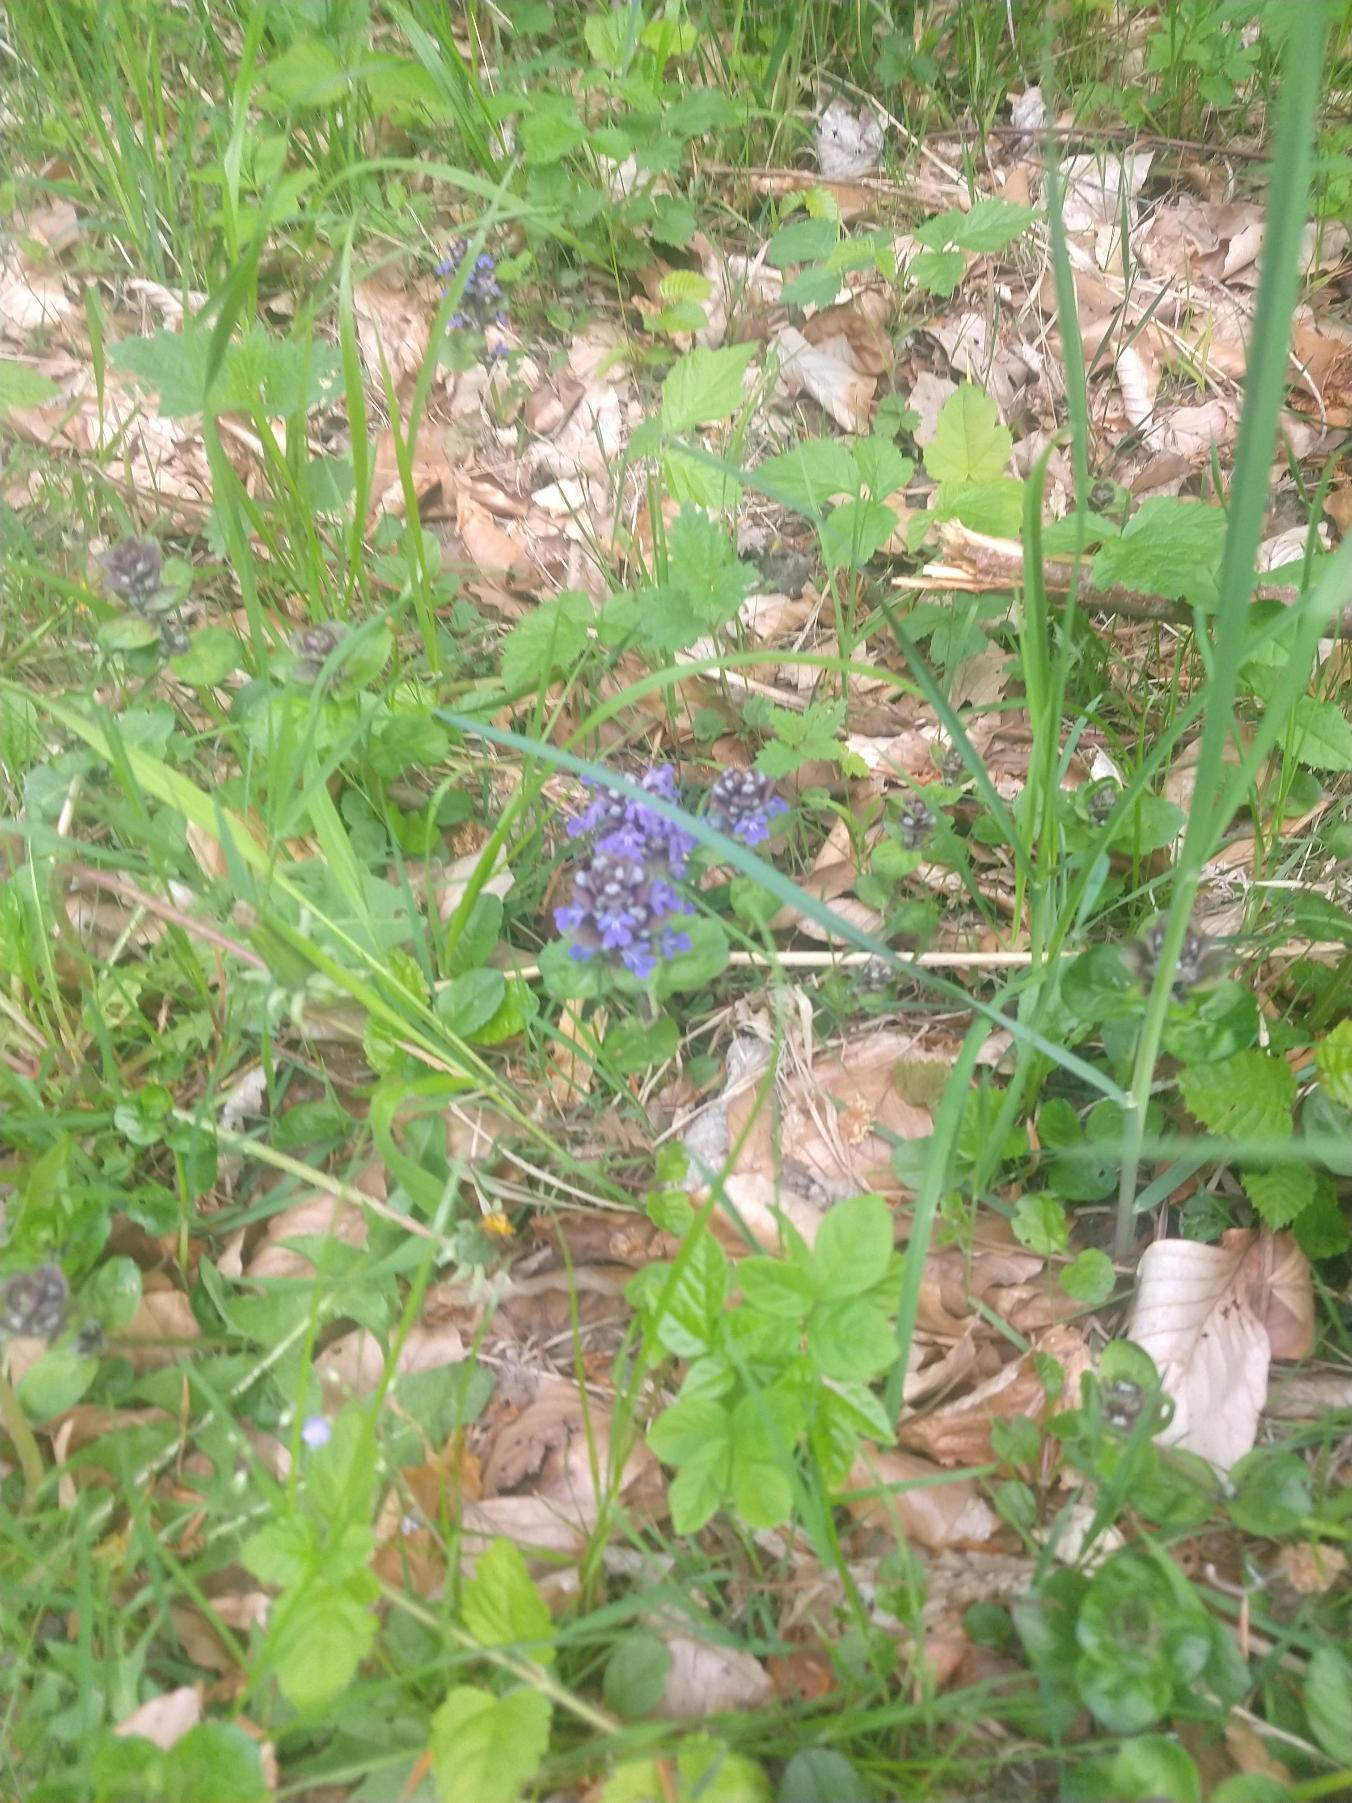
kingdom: Plantae
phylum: Tracheophyta
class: Magnoliopsida
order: Lamiales
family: Lamiaceae
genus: Ajuga
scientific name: Ajuga reptans
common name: Krybende læbeløs
